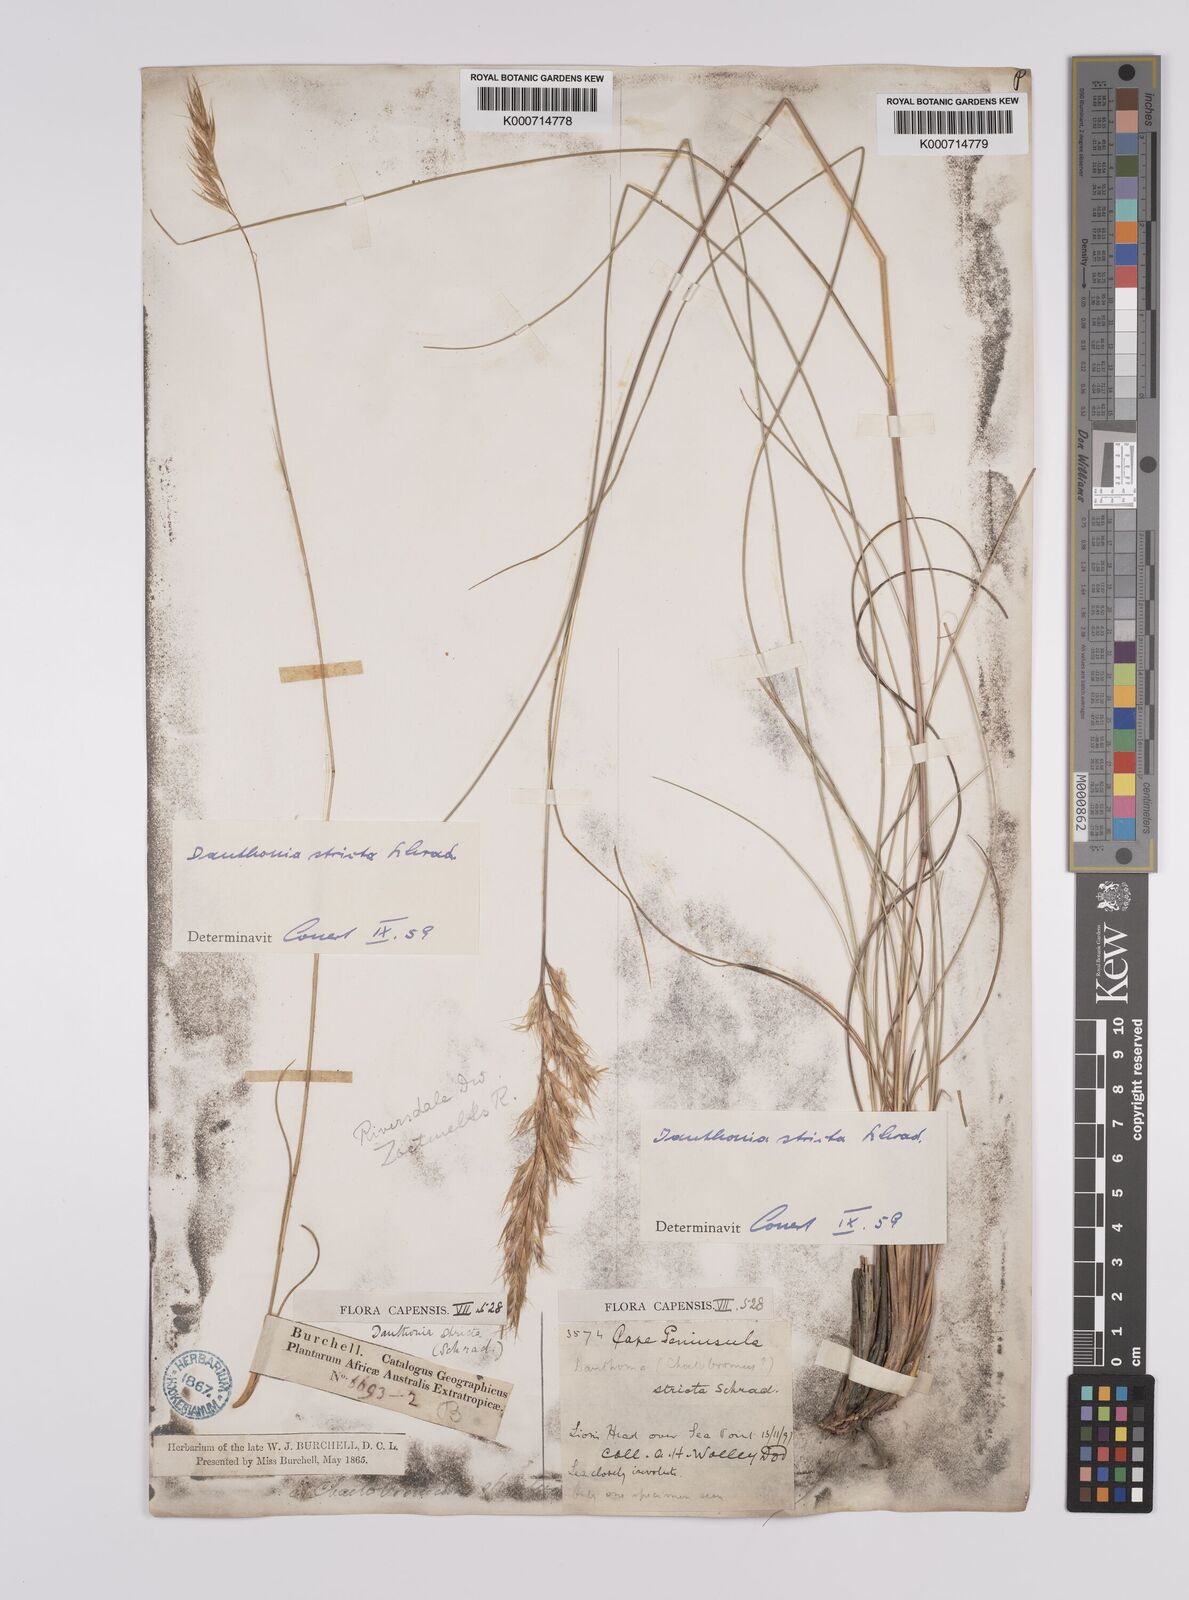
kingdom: Plantae
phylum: Tracheophyta
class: Liliopsida
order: Poales
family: Poaceae
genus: Rytidosperma
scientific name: Rytidosperma
